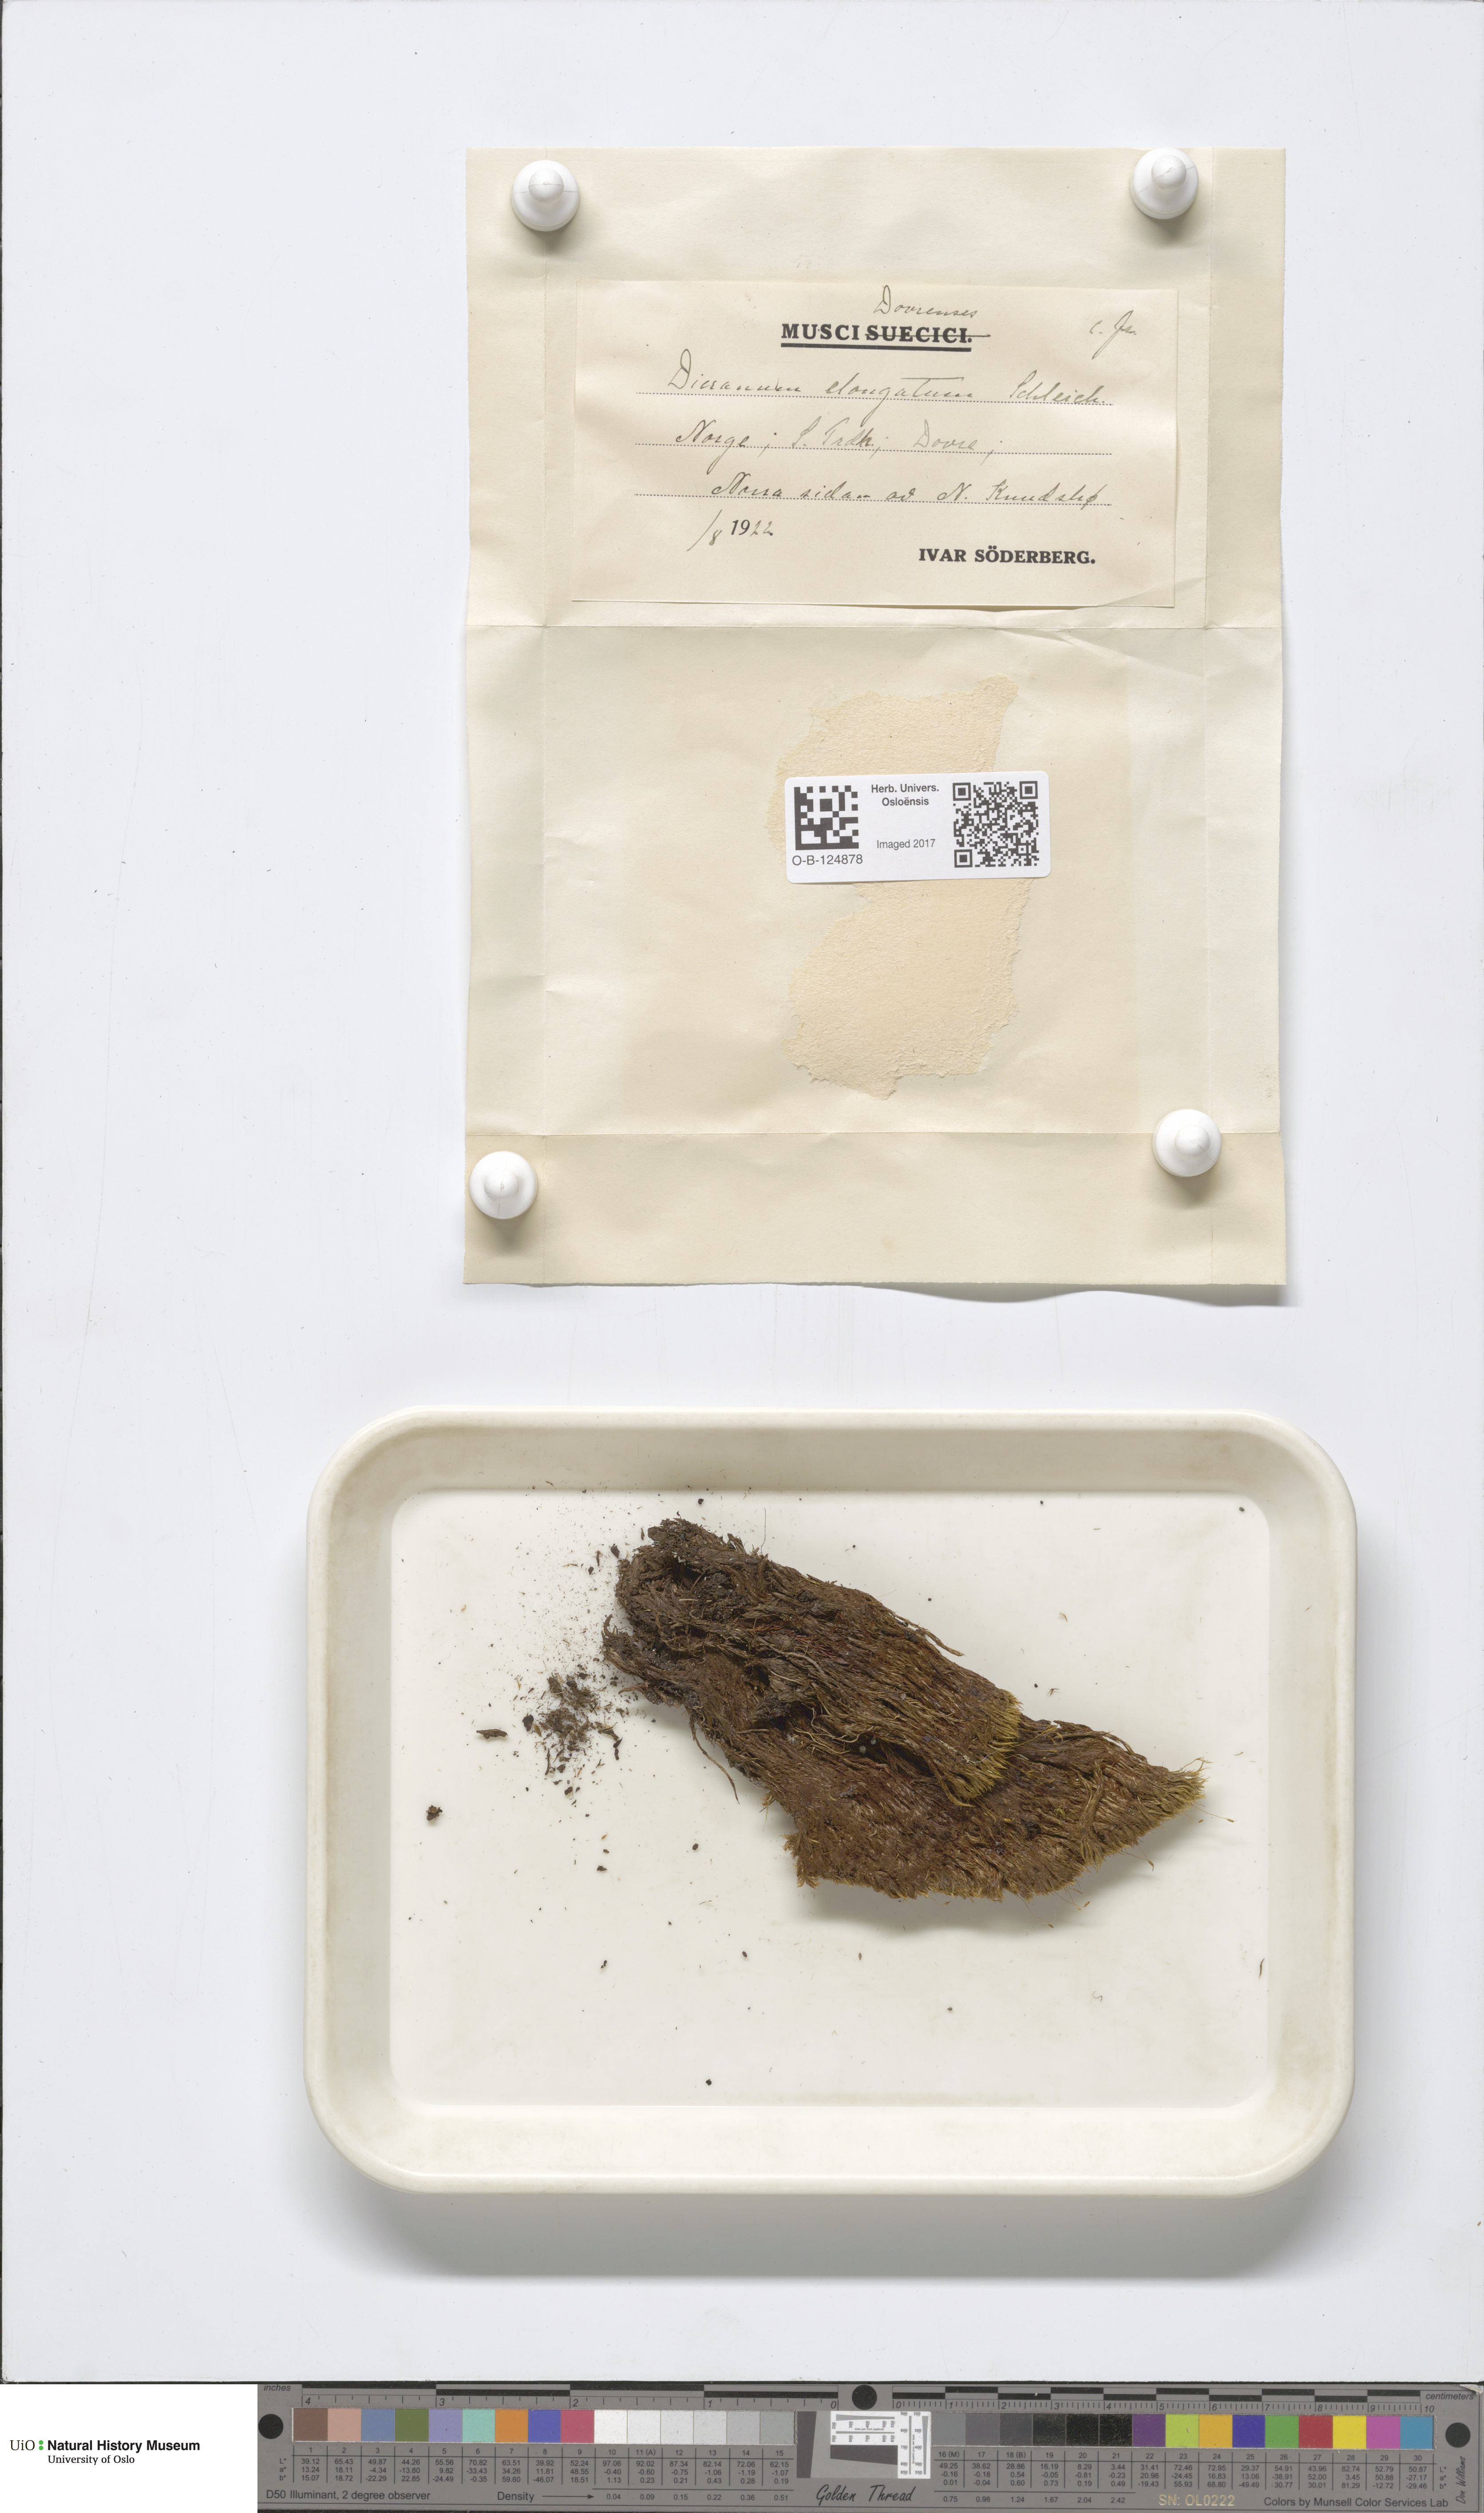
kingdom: Plantae
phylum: Bryophyta
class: Bryopsida
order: Dicranales
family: Dicranaceae
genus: Dicranum
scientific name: Dicranum elongatum
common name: Long-forked broom moss
